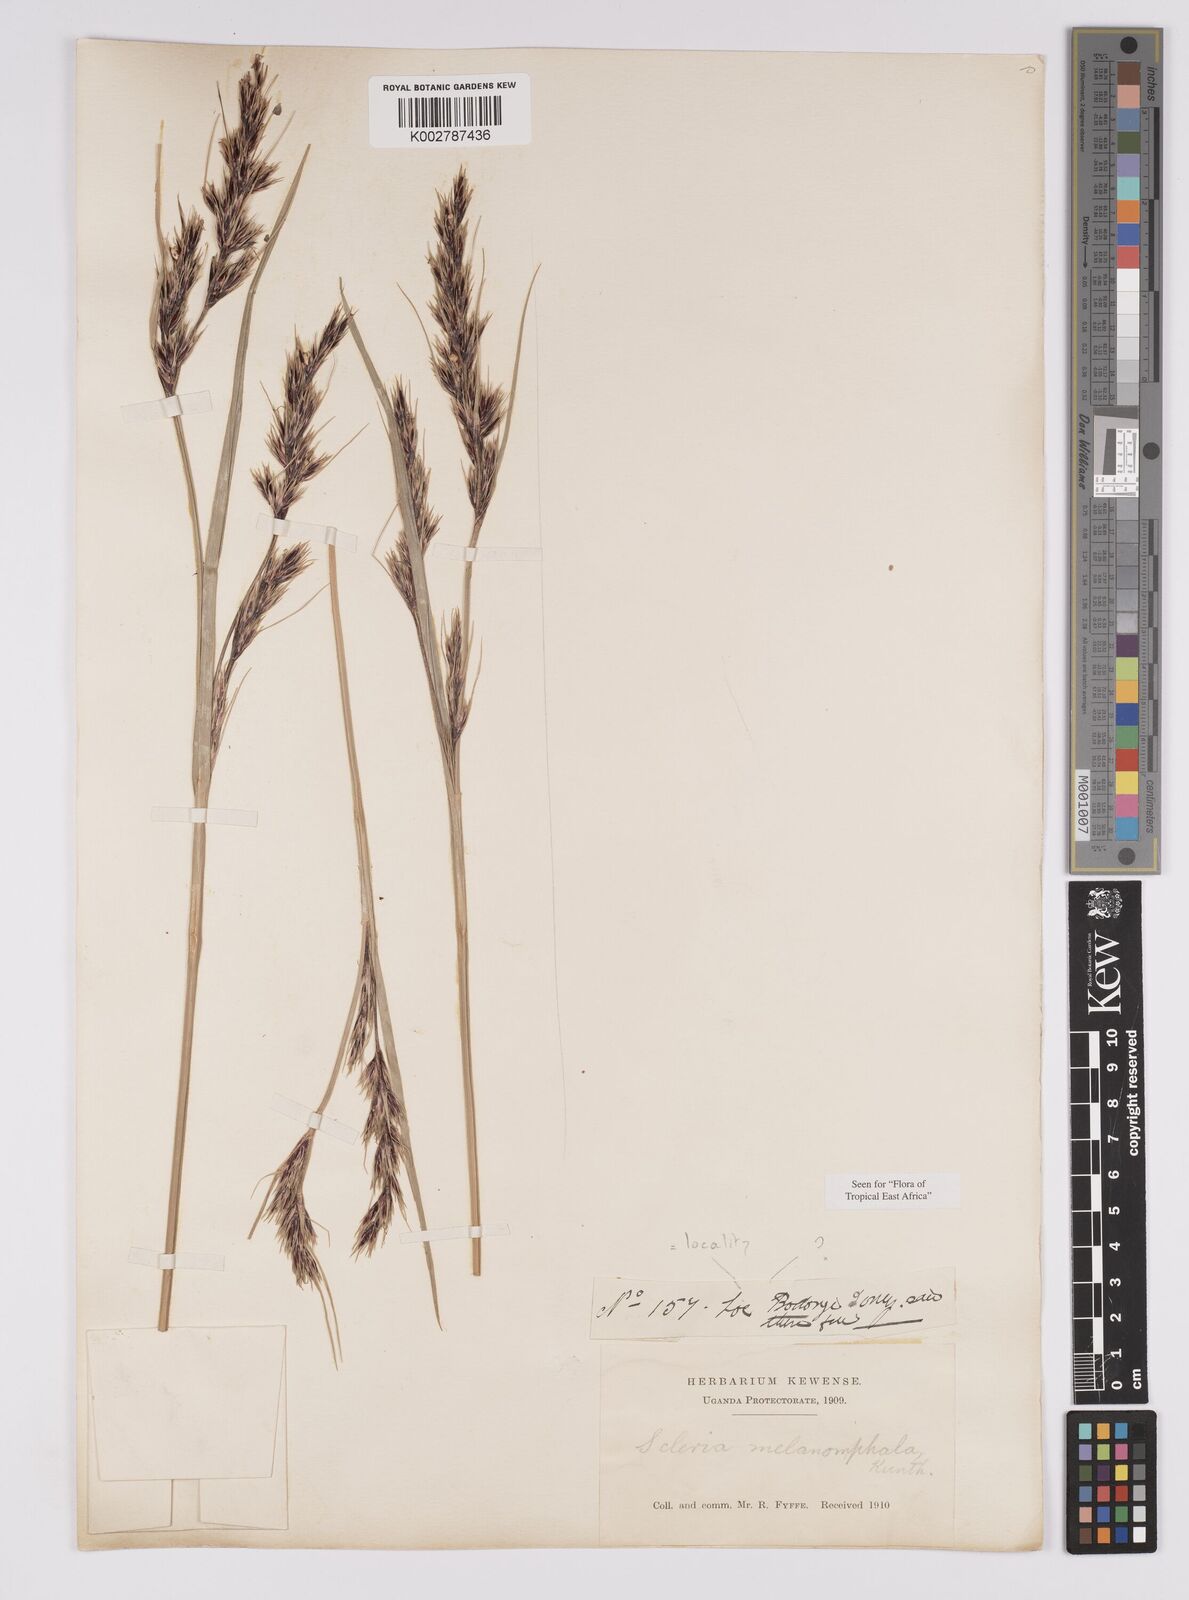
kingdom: Plantae
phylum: Tracheophyta
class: Liliopsida
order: Poales
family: Cyperaceae
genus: Scleria
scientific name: Scleria melanomphala
